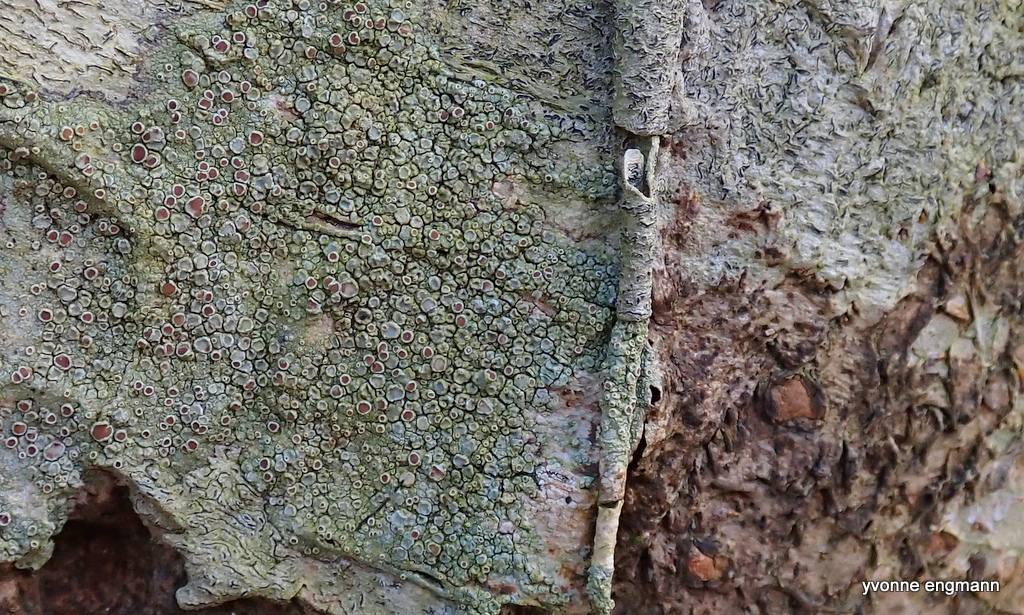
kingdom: Fungi
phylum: Ascomycota
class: Lecanoromycetes
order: Lecanorales
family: Lecanoraceae
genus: Lecanora
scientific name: Lecanora chlarotera
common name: brun kantskivelav
